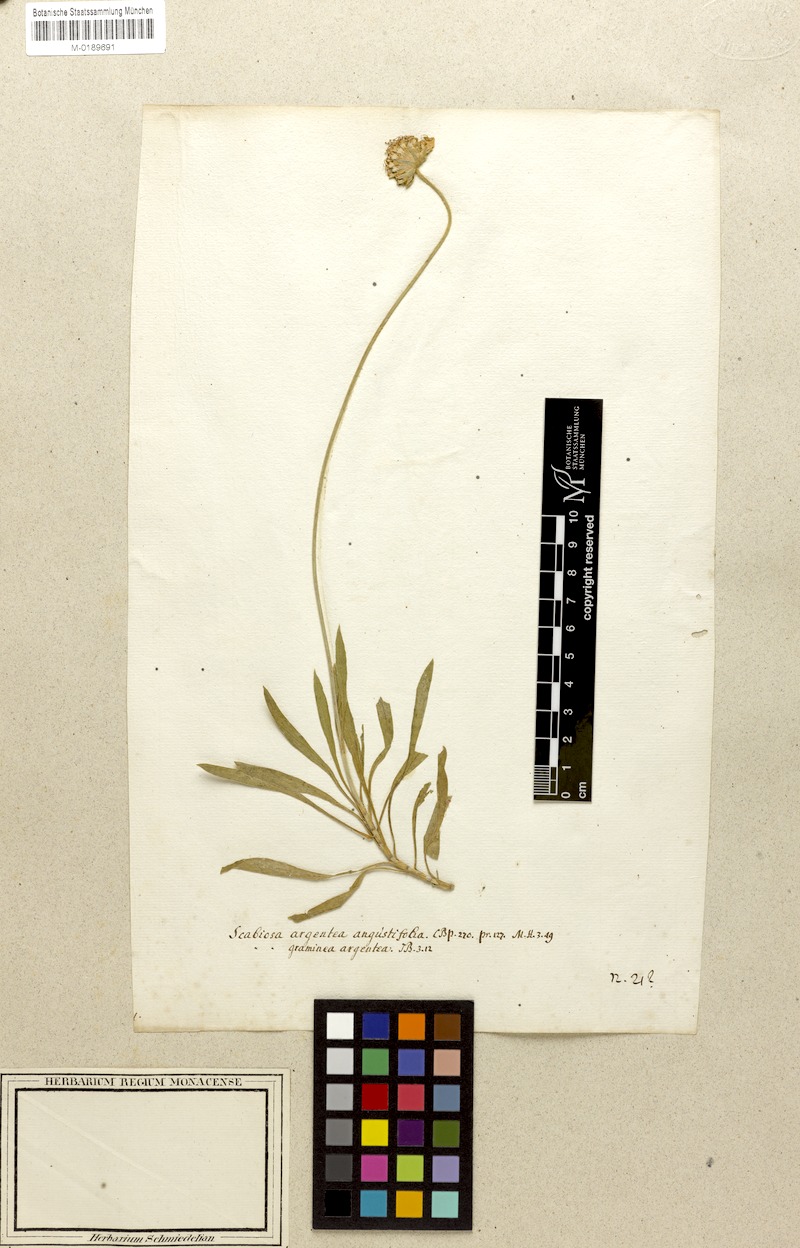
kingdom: Plantae
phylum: Tracheophyta
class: Magnoliopsida
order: Dipsacales
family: Caprifoliaceae
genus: Lomelosia
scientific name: Lomelosia graminifolia
